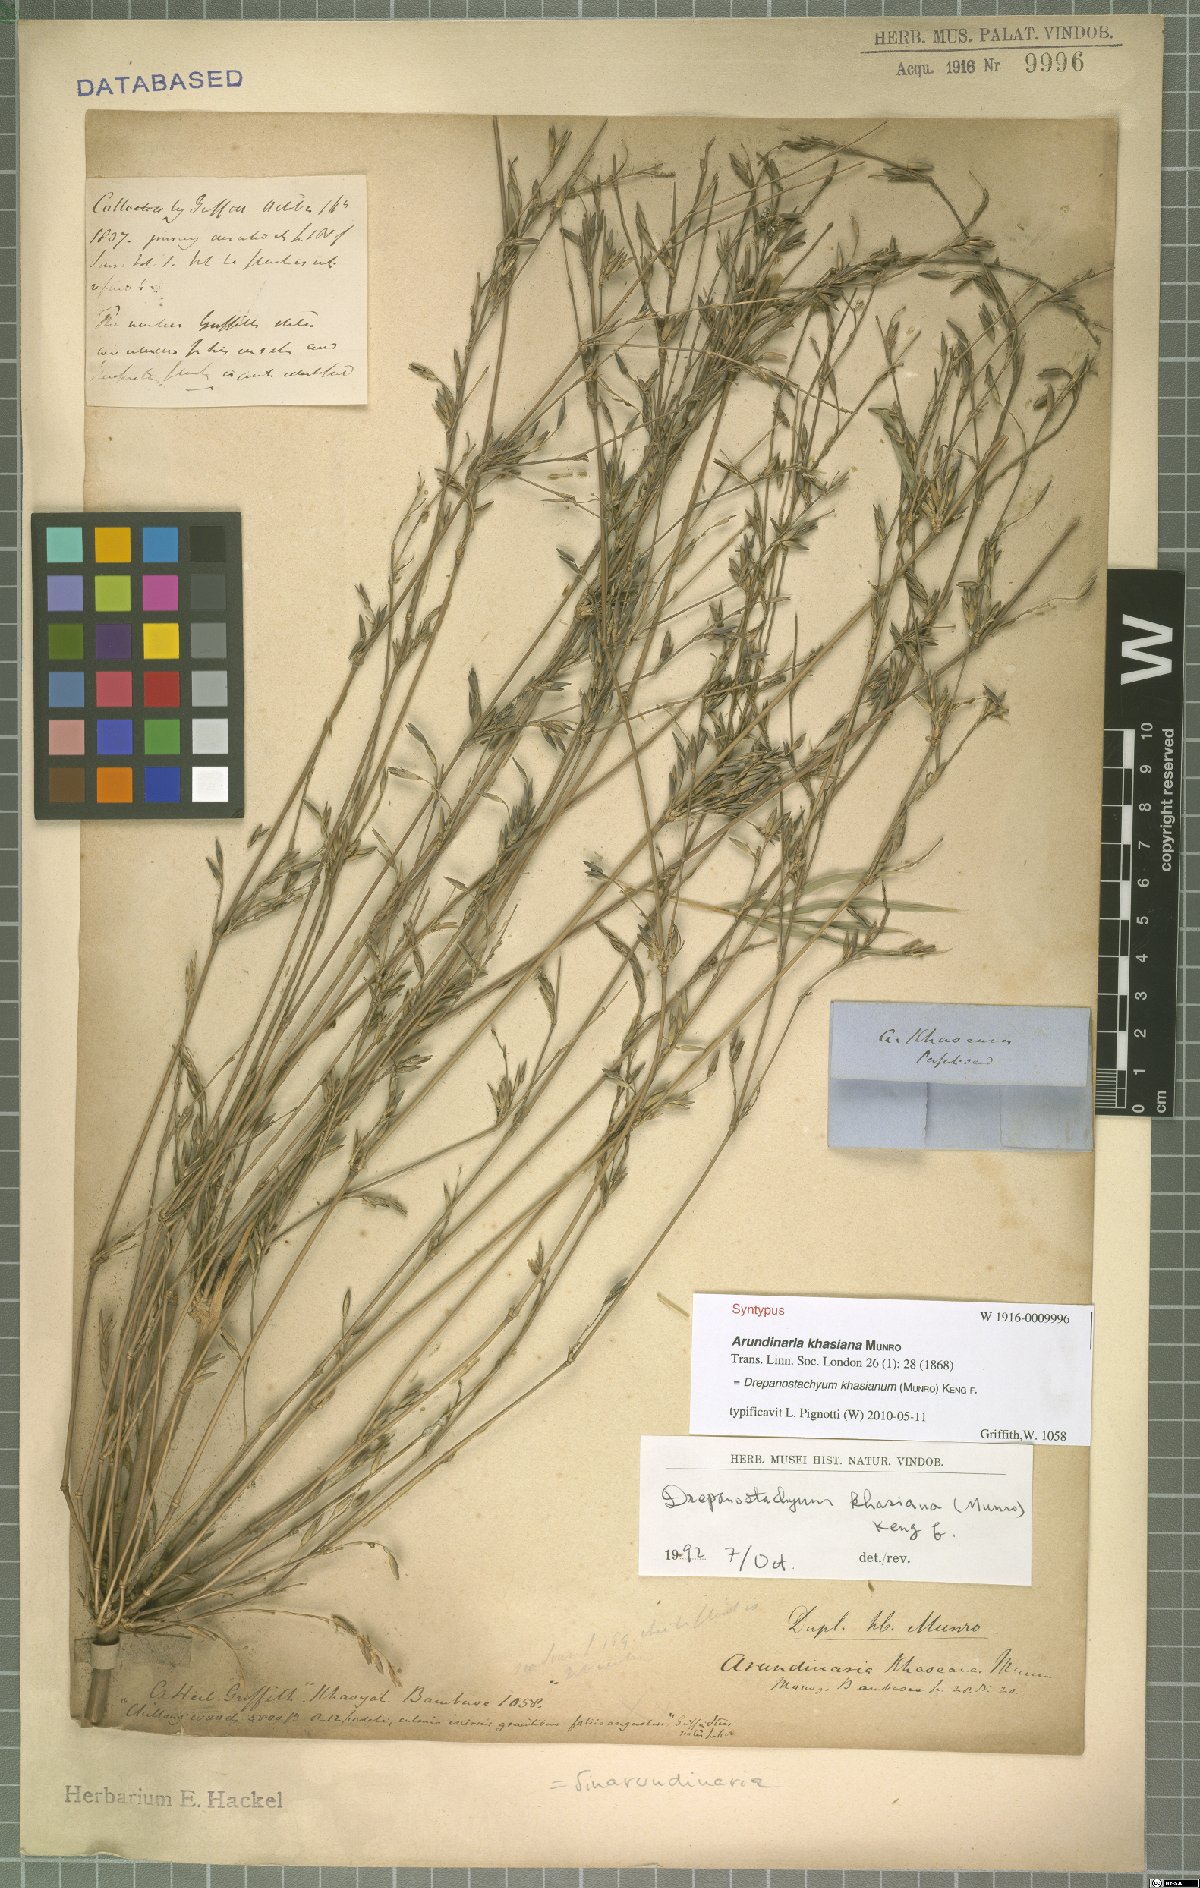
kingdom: Plantae
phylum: Tracheophyta
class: Liliopsida
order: Poales
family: Poaceae
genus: Drepanostachyum
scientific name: Drepanostachyum khasianum
